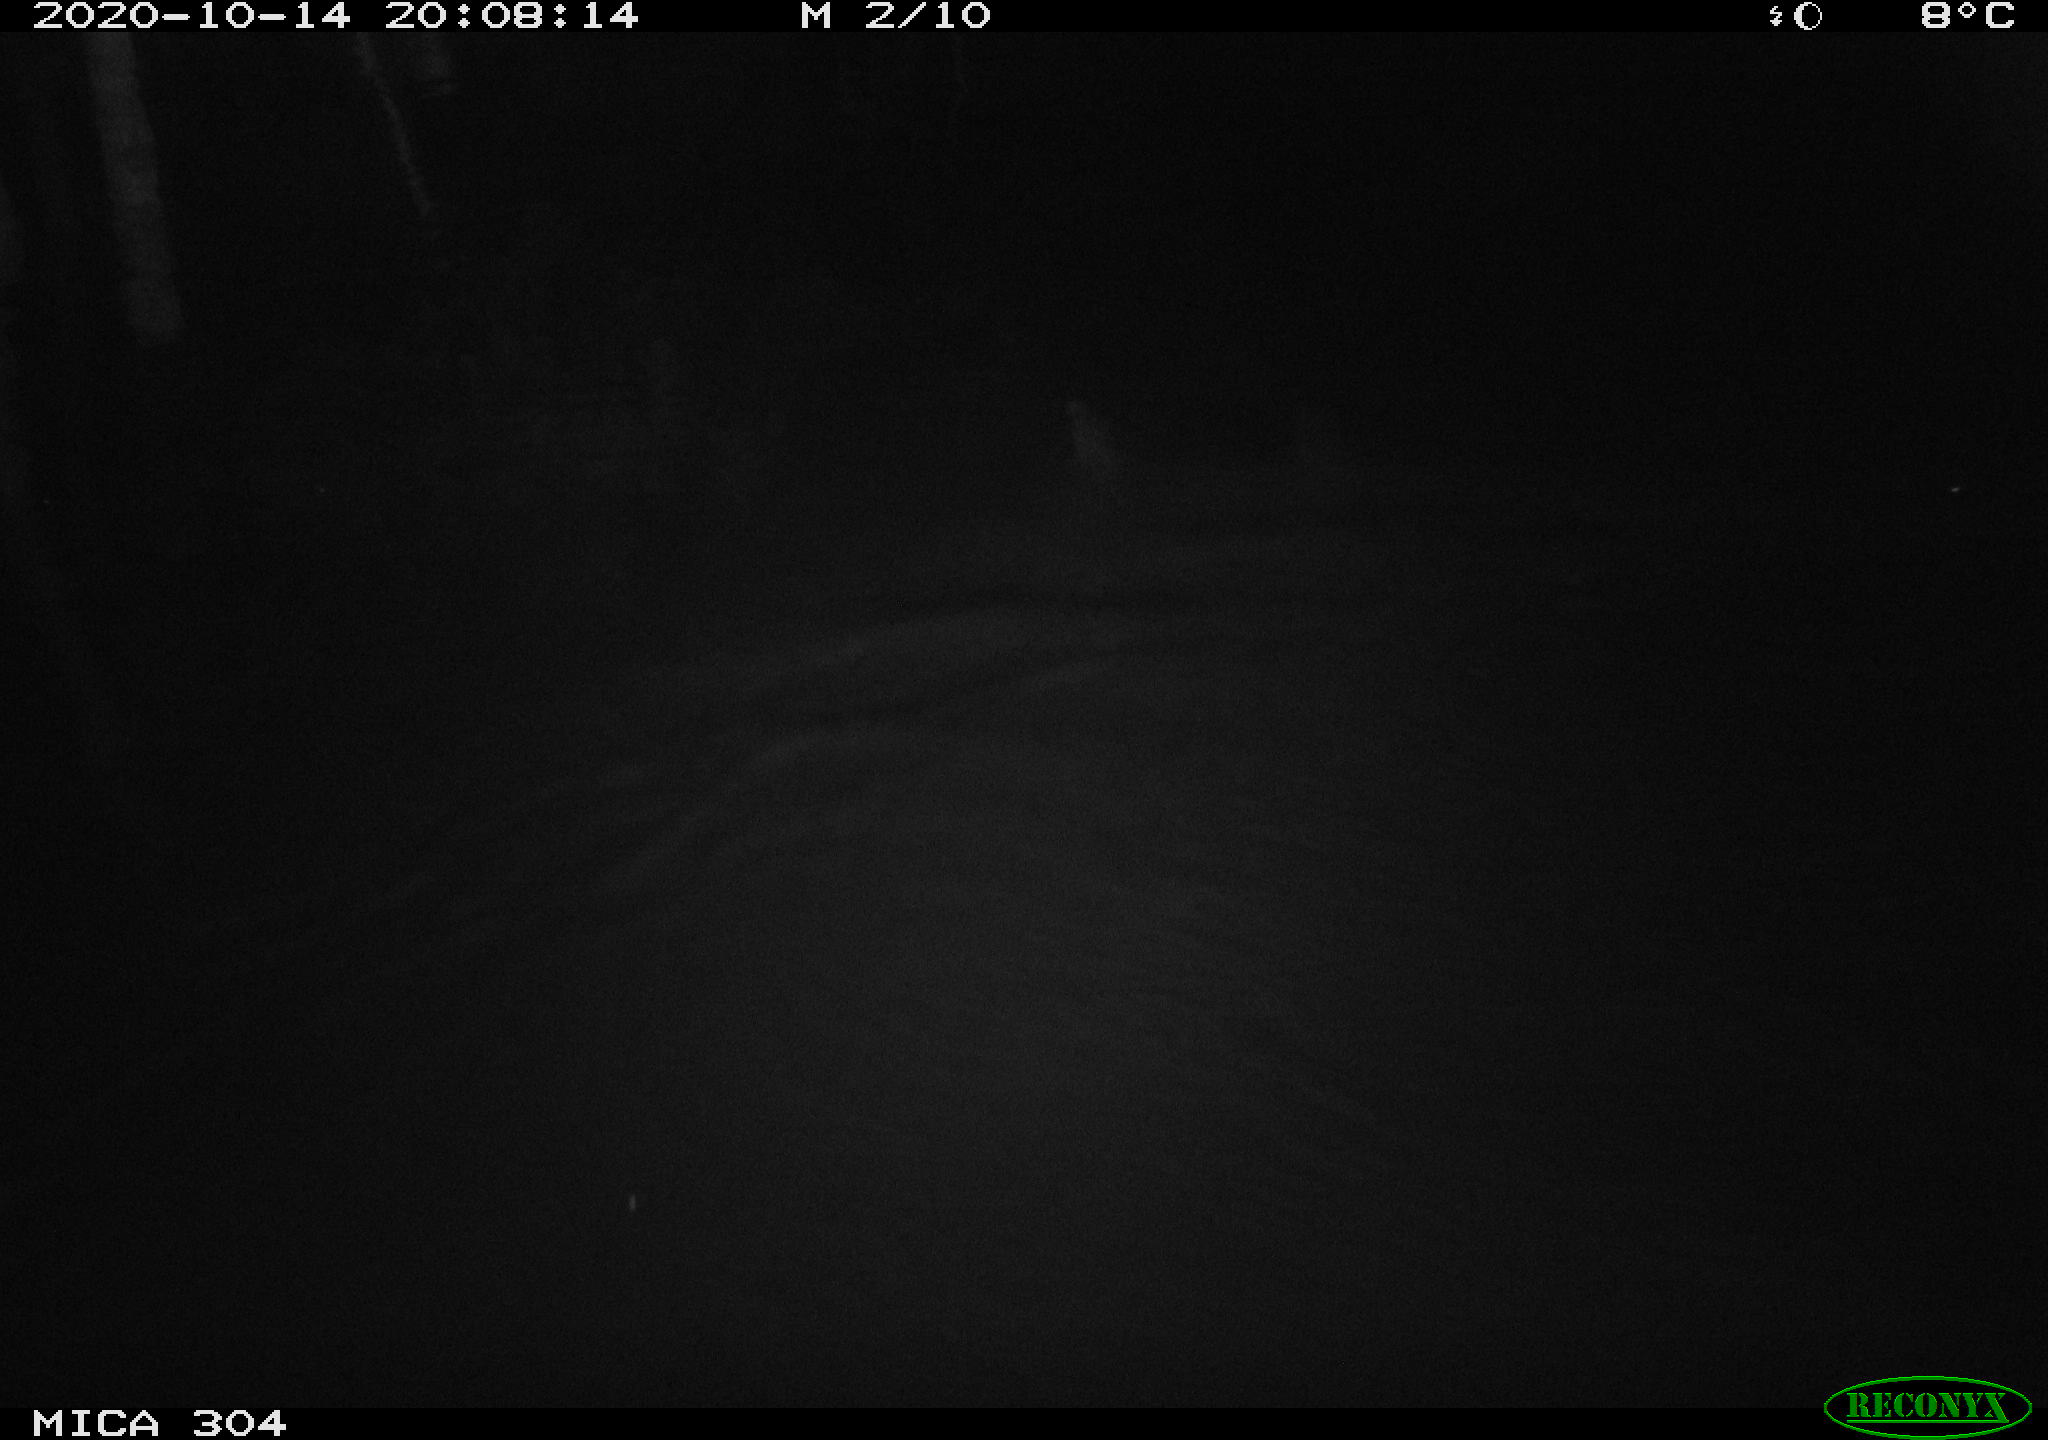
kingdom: Animalia
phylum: Chordata
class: Mammalia
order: Rodentia
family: Cricetidae
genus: Ondatra
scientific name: Ondatra zibethicus
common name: Muskrat
